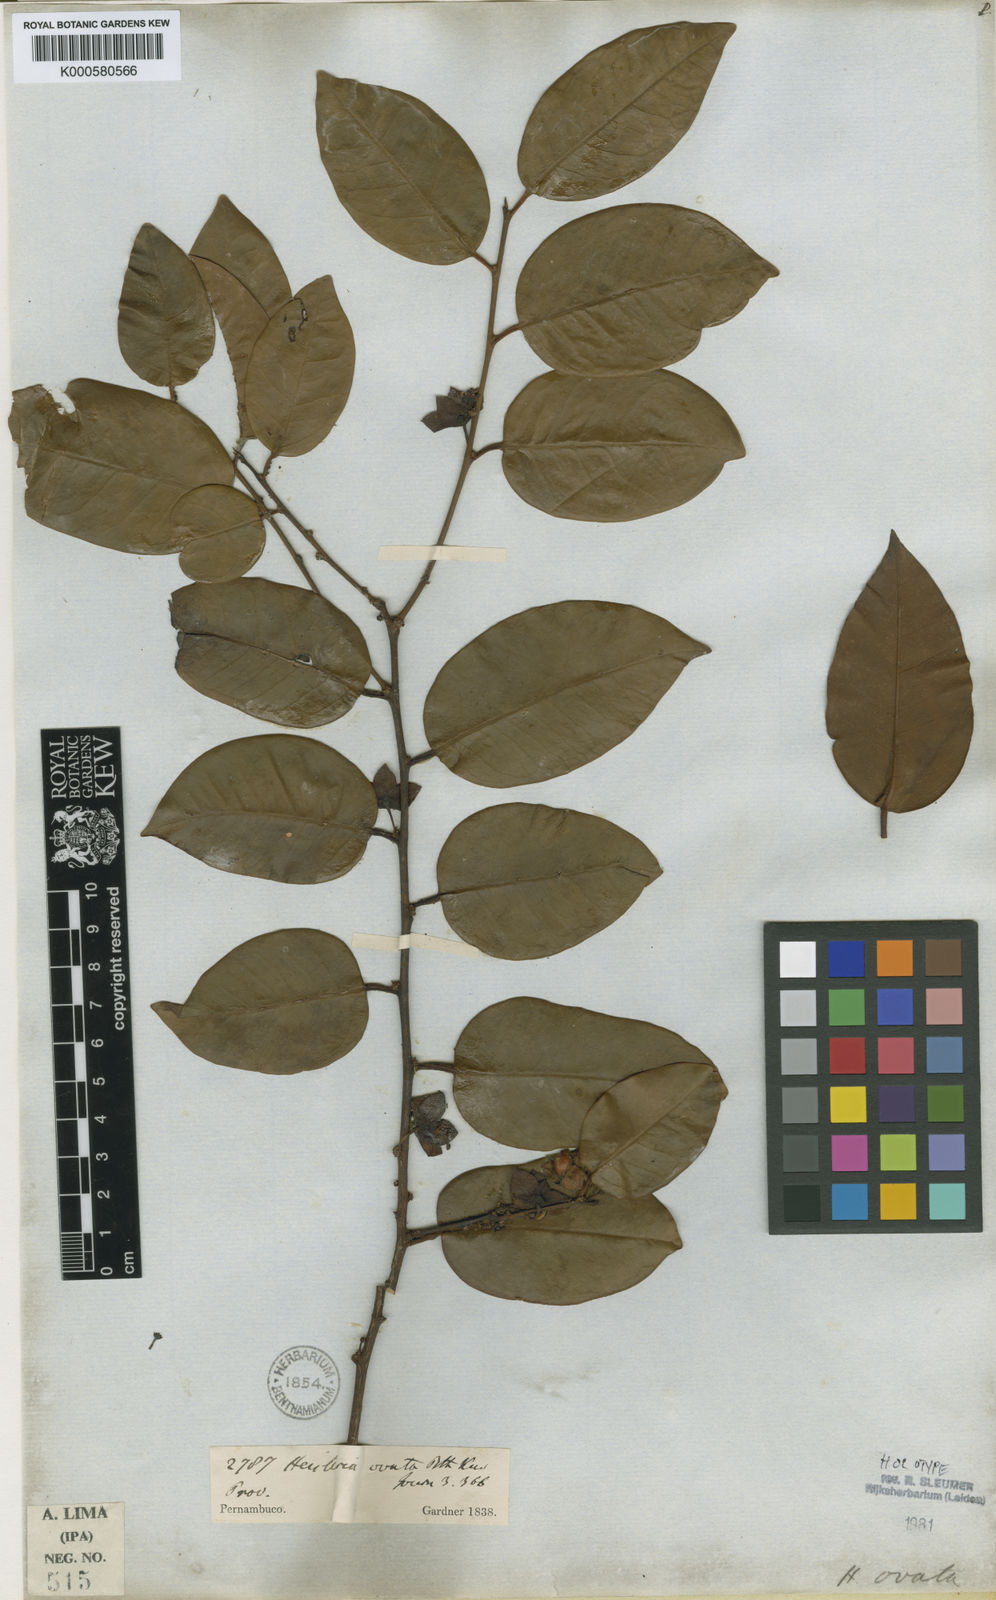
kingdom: Plantae
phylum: Tracheophyta
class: Magnoliopsida
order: Santalales
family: Erythropalaceae
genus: Heisteria
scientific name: Heisteria ovata
